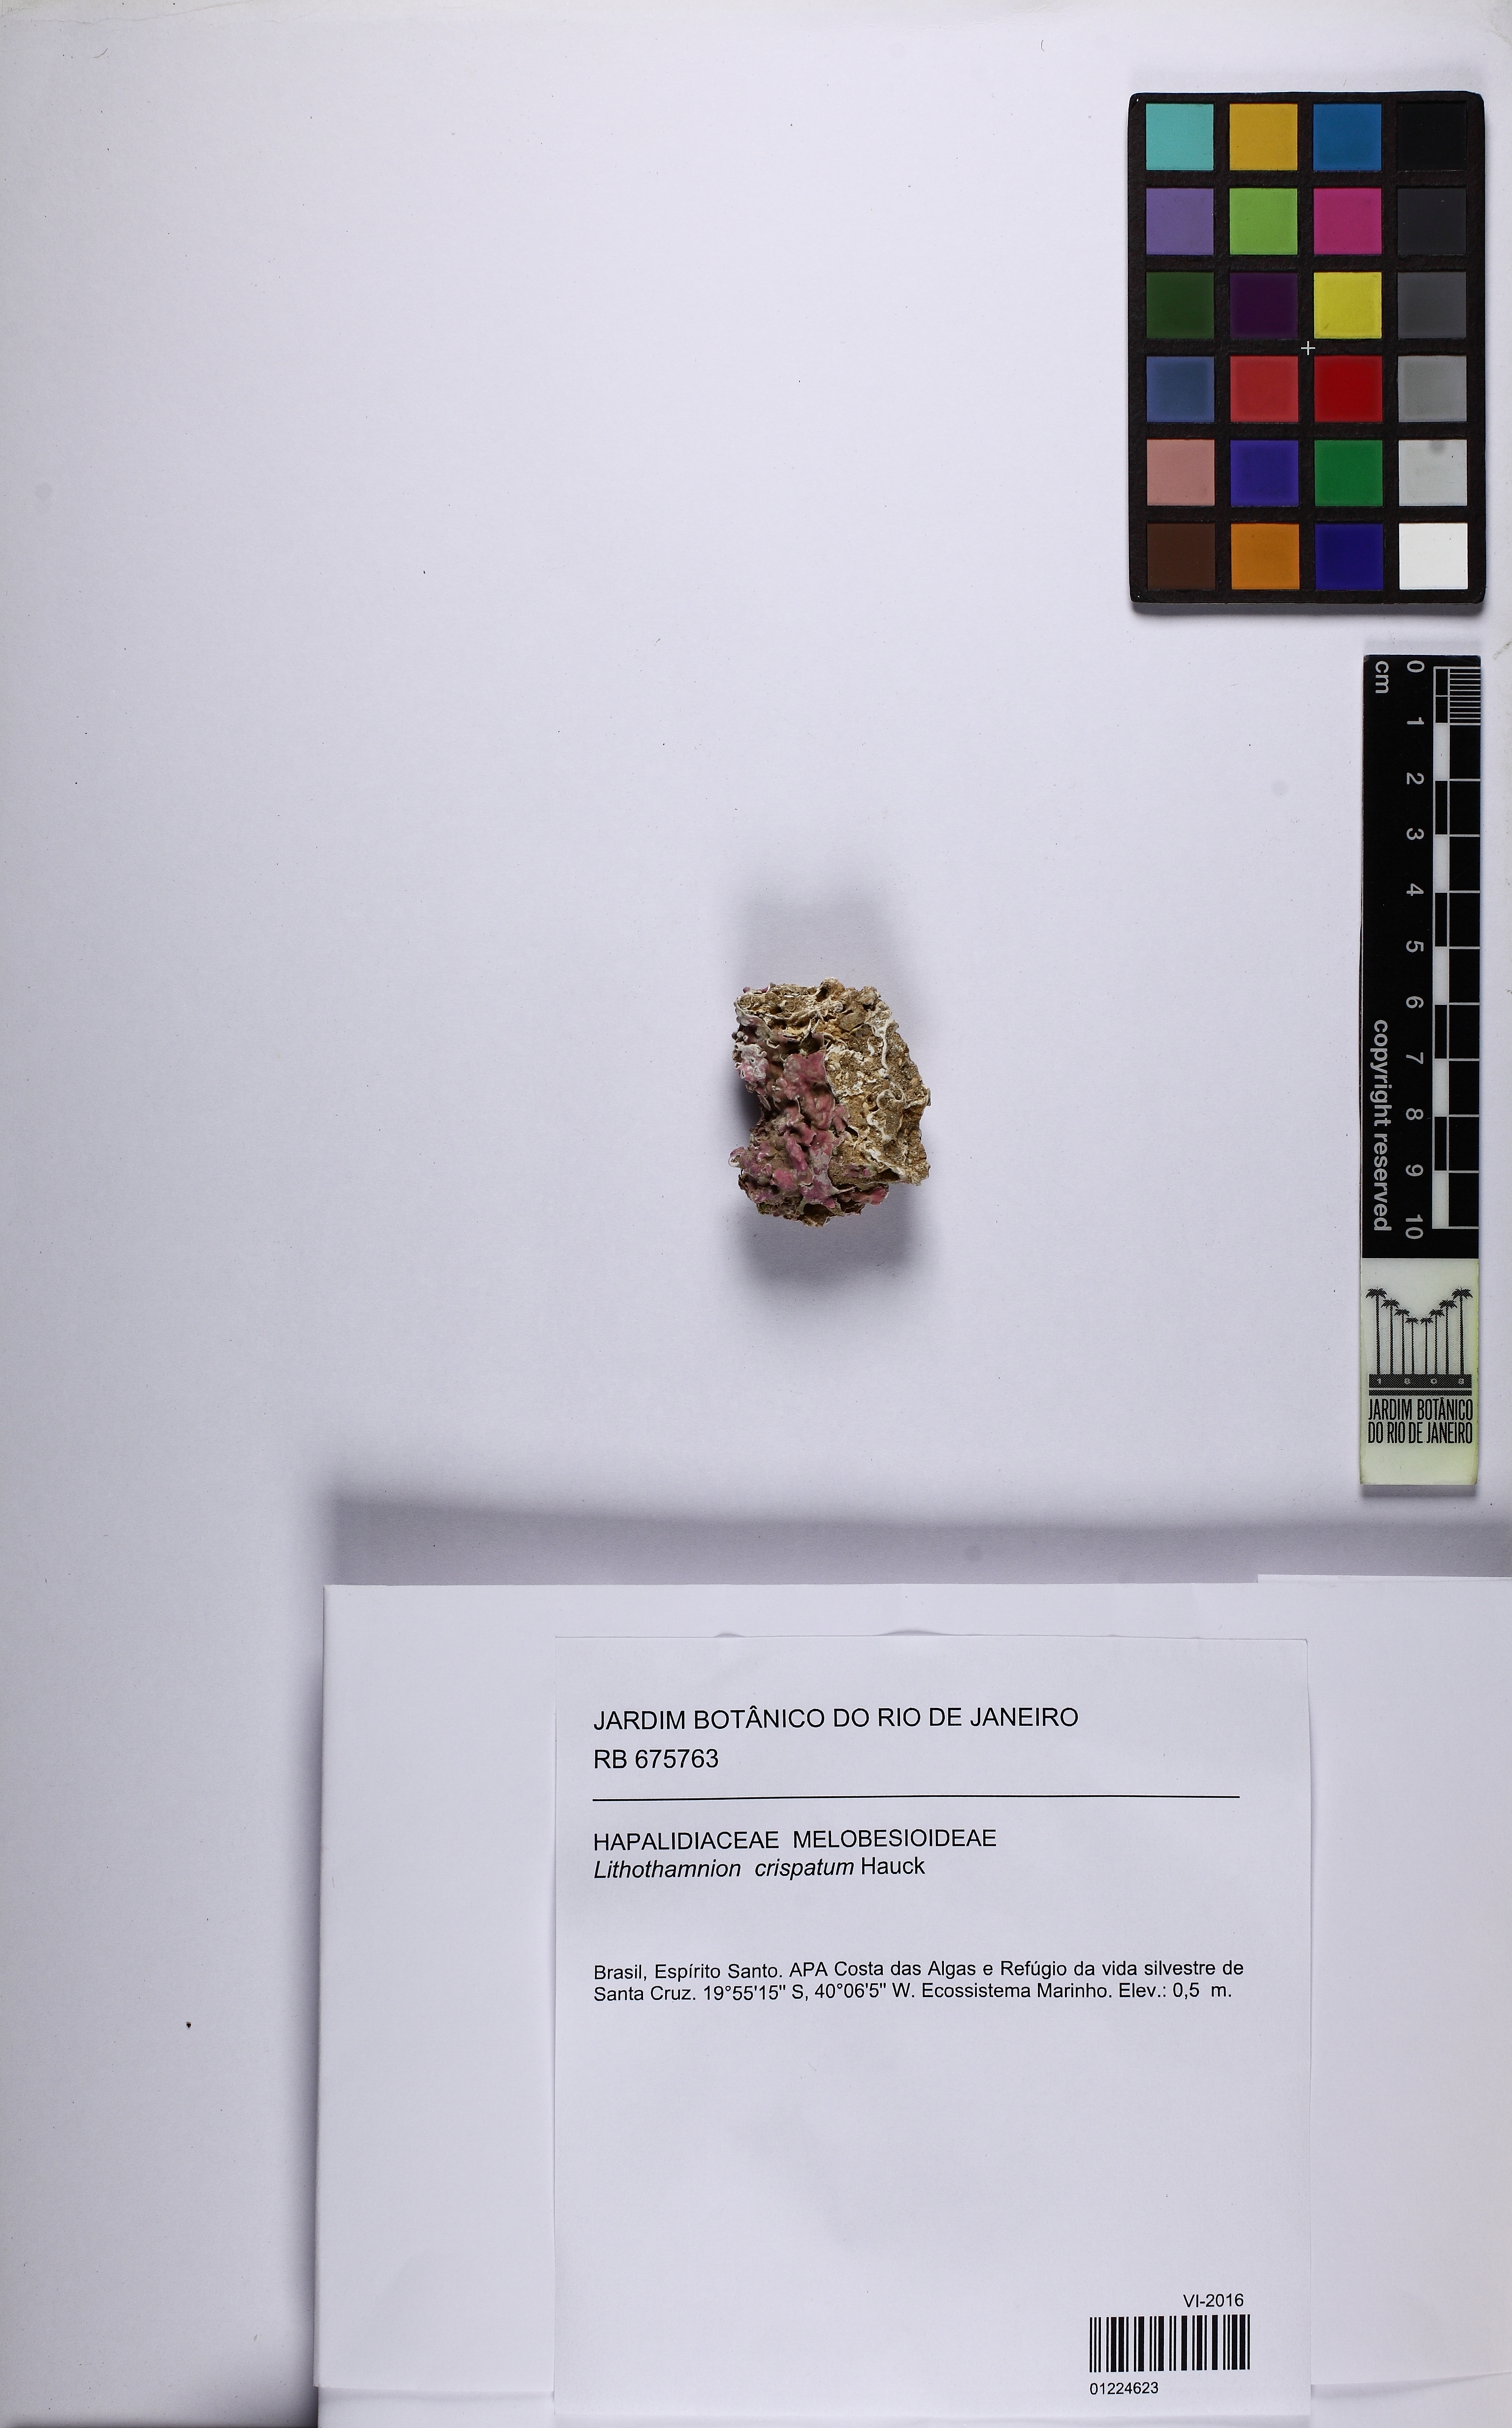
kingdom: Plantae
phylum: Rhodophyta
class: Florideophyceae
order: Corallinales
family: Hapalidiaceae
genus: Lithothamnion
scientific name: Lithothamnion crispatum
